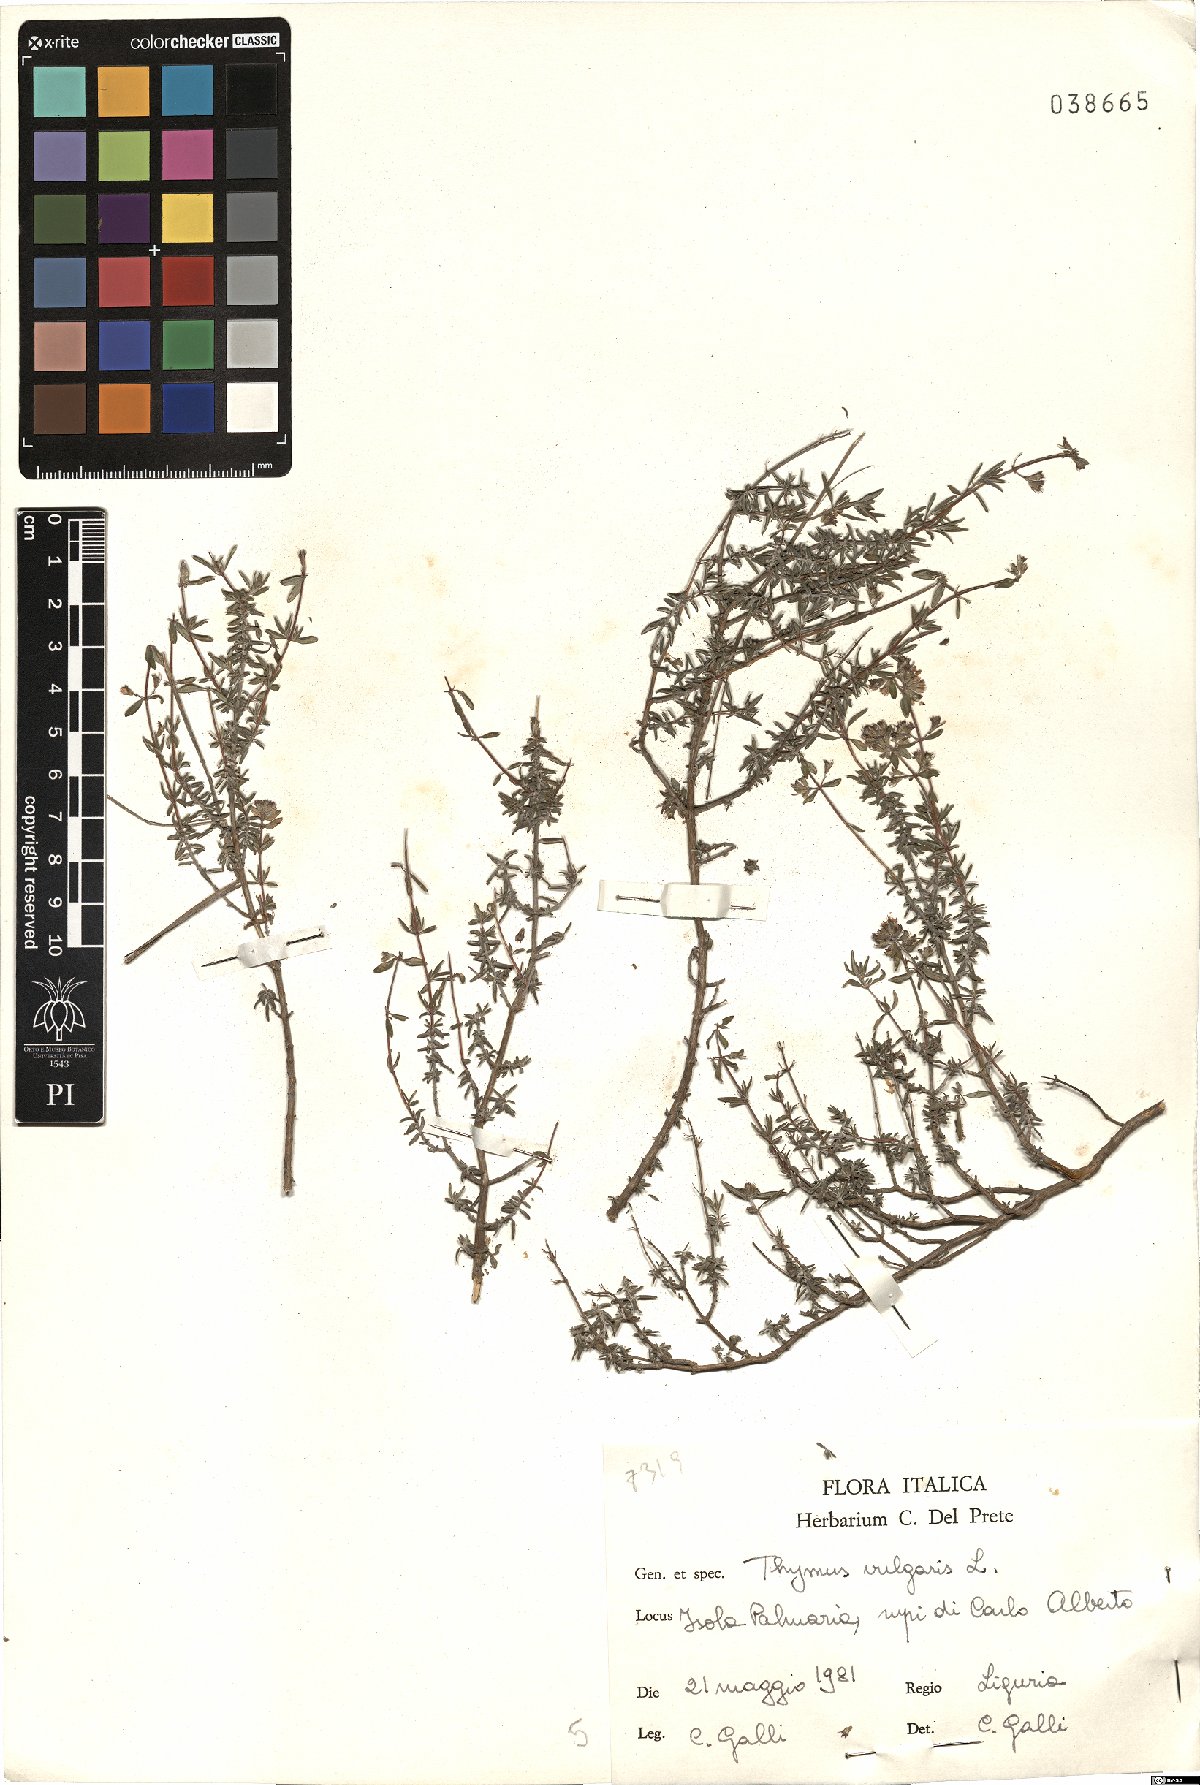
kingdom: Plantae
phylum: Tracheophyta
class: Magnoliopsida
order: Lamiales
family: Lamiaceae
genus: Thymus
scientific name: Thymus vulgaris
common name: Garden thyme
